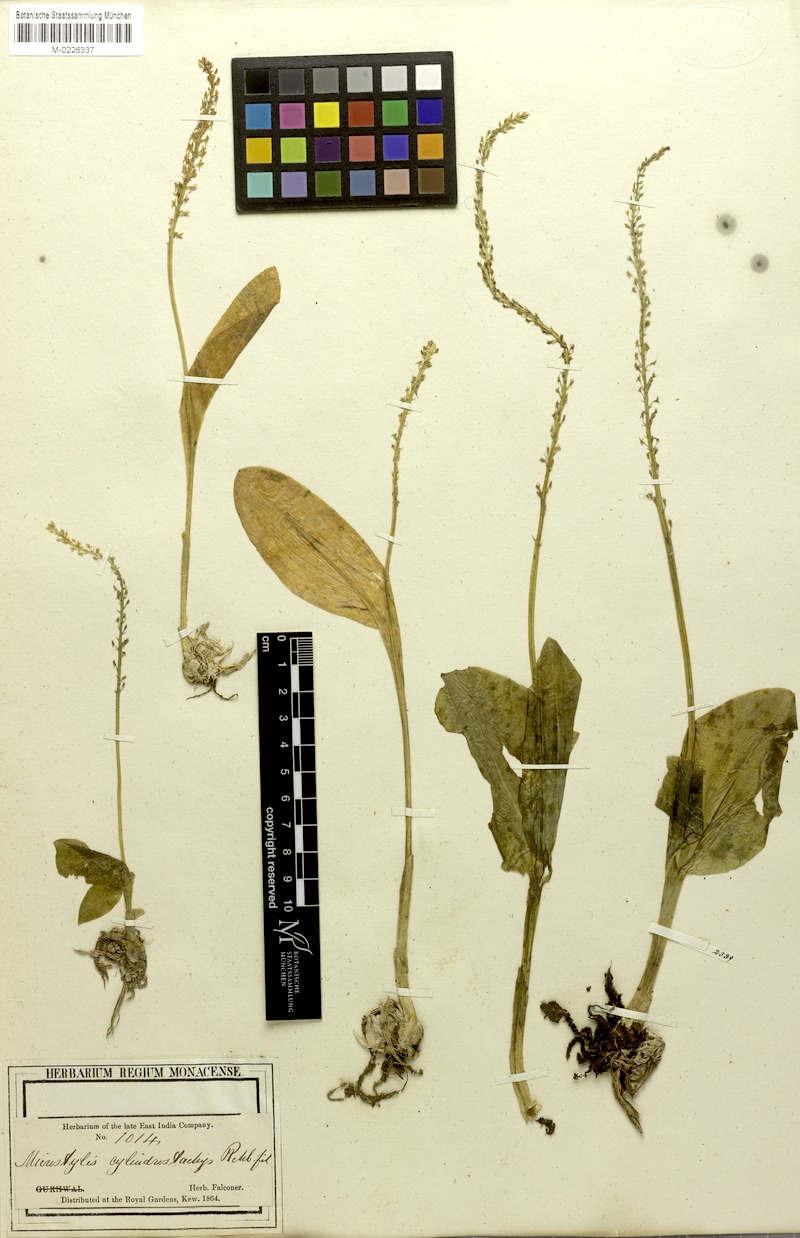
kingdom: Plantae
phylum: Tracheophyta
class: Liliopsida
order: Asparagales
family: Orchidaceae
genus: Dienia
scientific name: Dienia cylindrostachya
